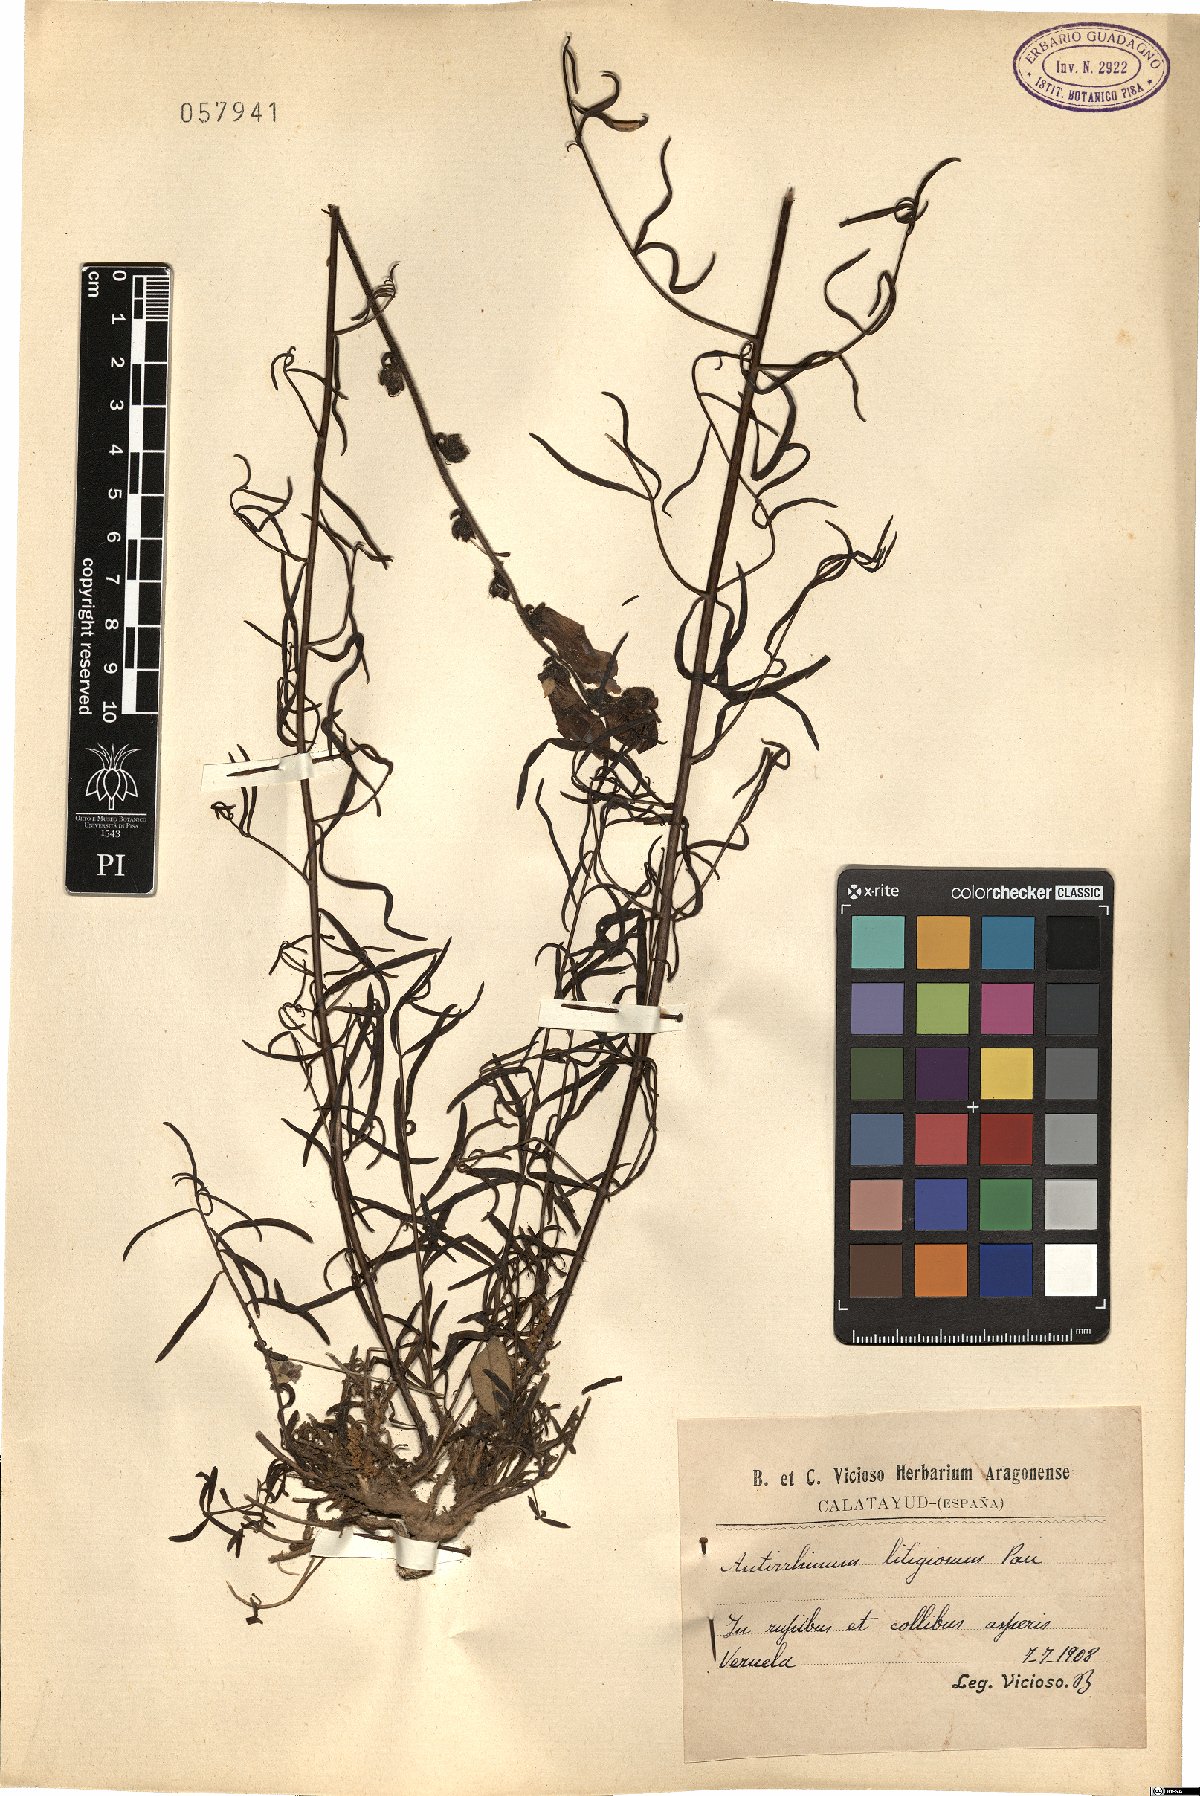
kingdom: Plantae
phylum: Tracheophyta
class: Magnoliopsida
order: Lamiales
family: Plantaginaceae
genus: Antirrhinum
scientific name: Antirrhinum litigiosum
